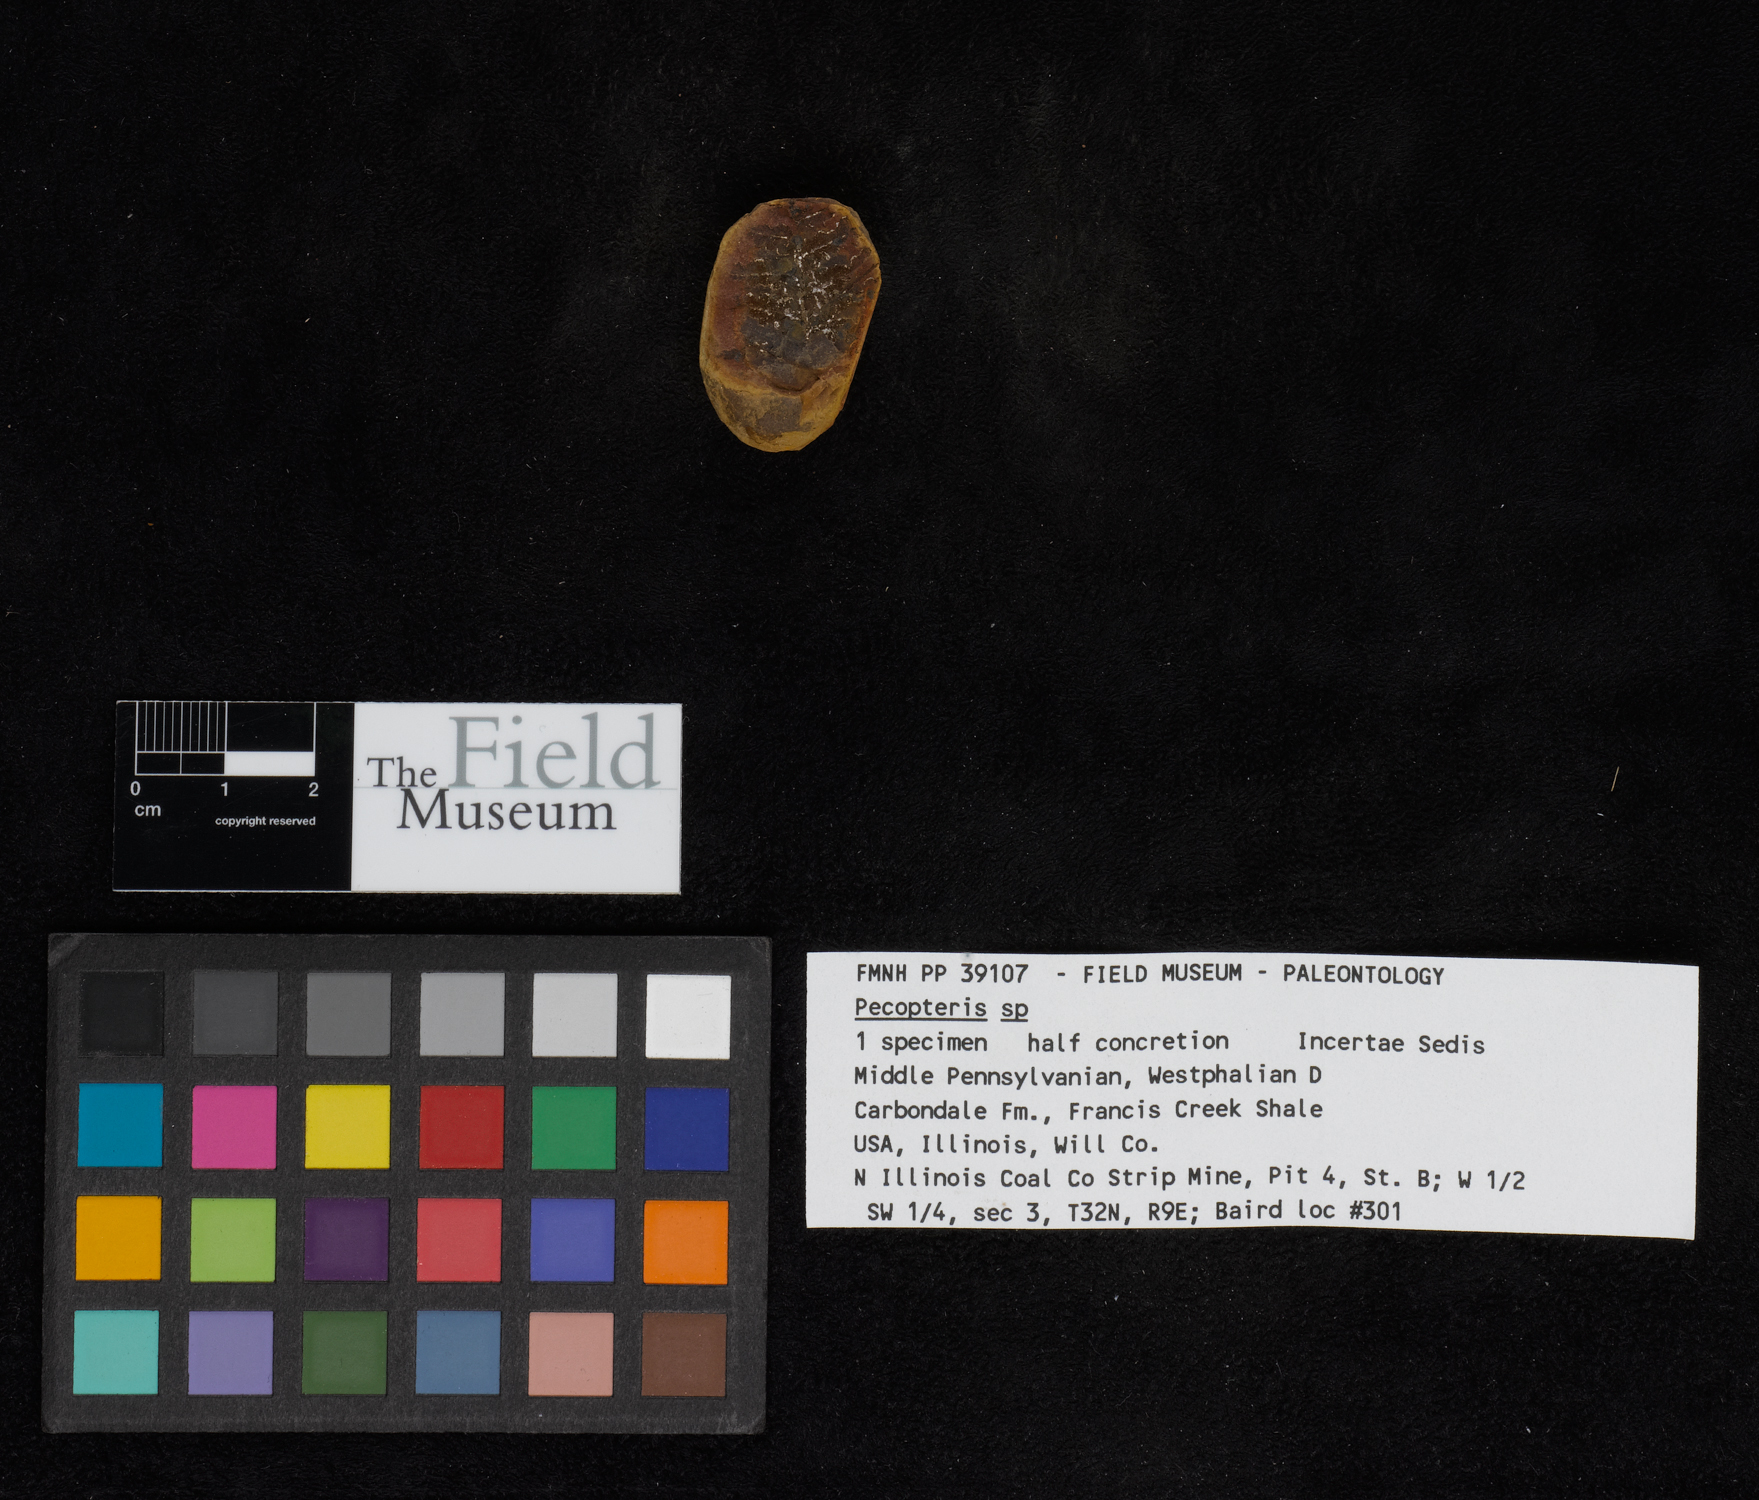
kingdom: Plantae
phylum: Tracheophyta
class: Polypodiopsida
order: Marattiales
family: Asterothecaceae
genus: Pecopteris
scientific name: Pecopteris
